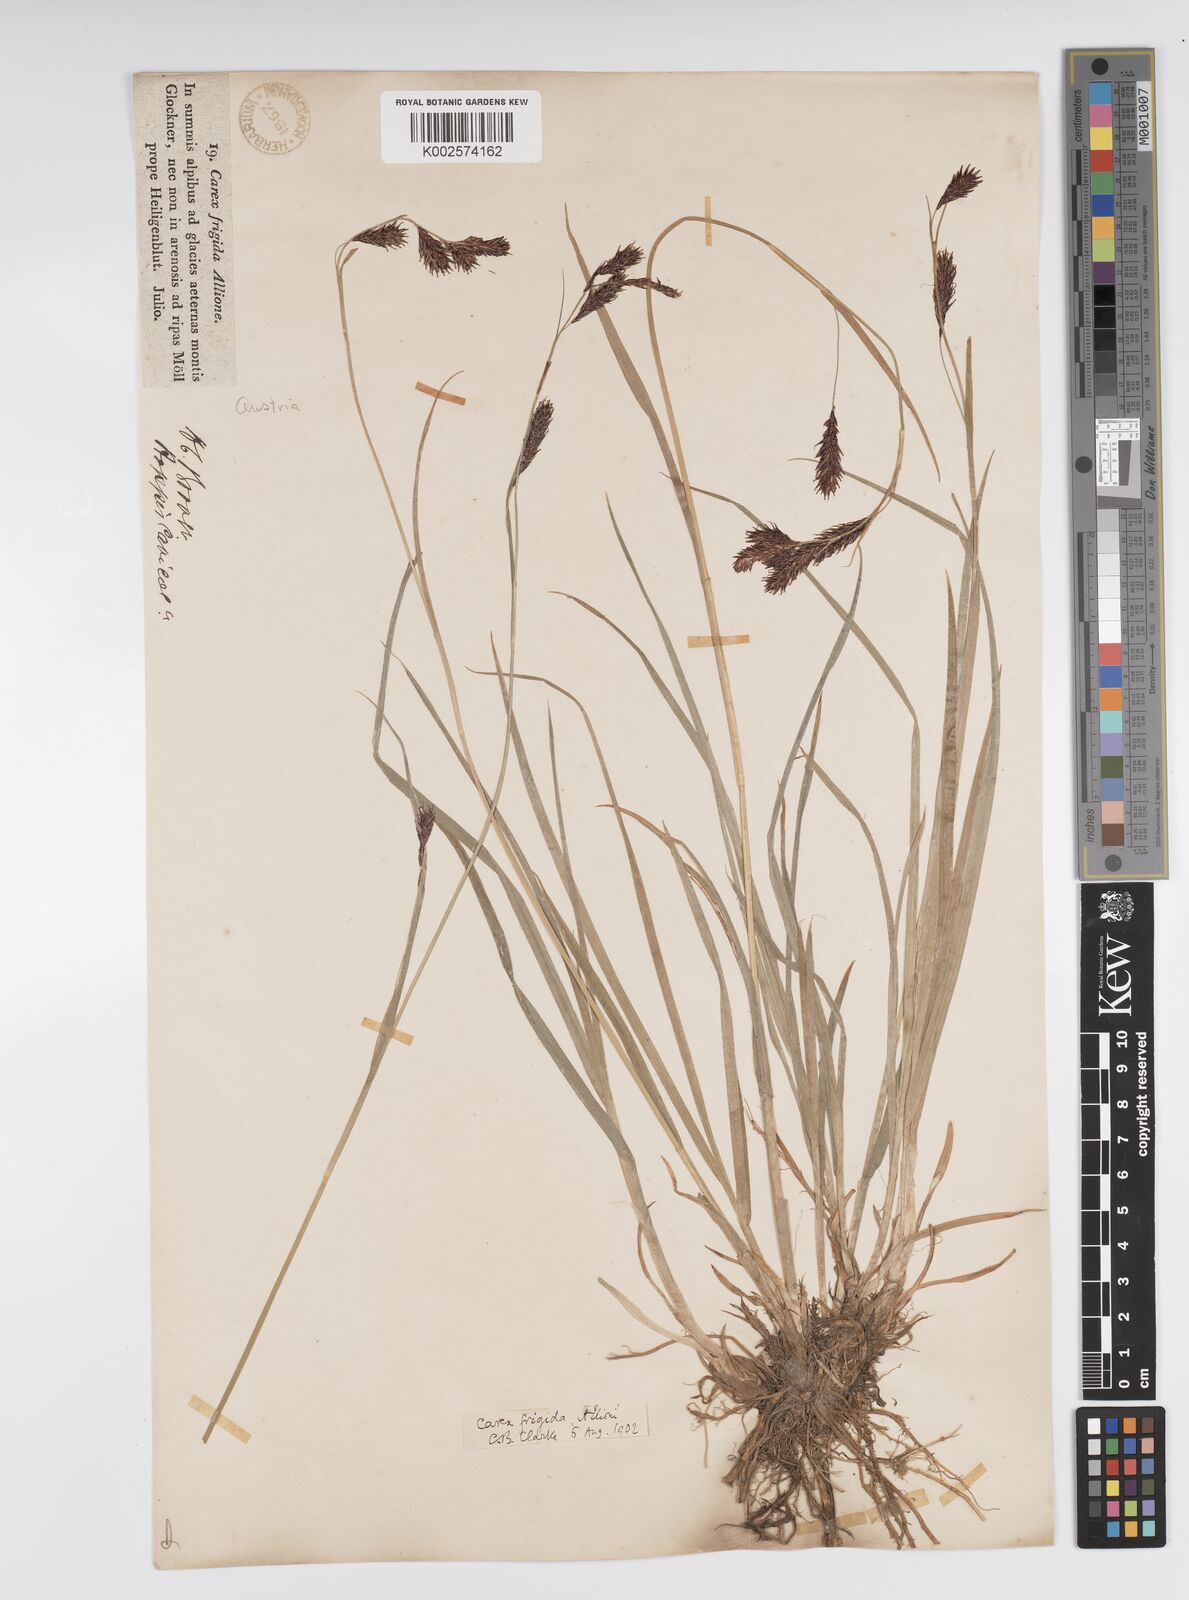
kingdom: Plantae
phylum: Tracheophyta
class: Liliopsida
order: Poales
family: Cyperaceae
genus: Carex
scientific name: Carex frigida
